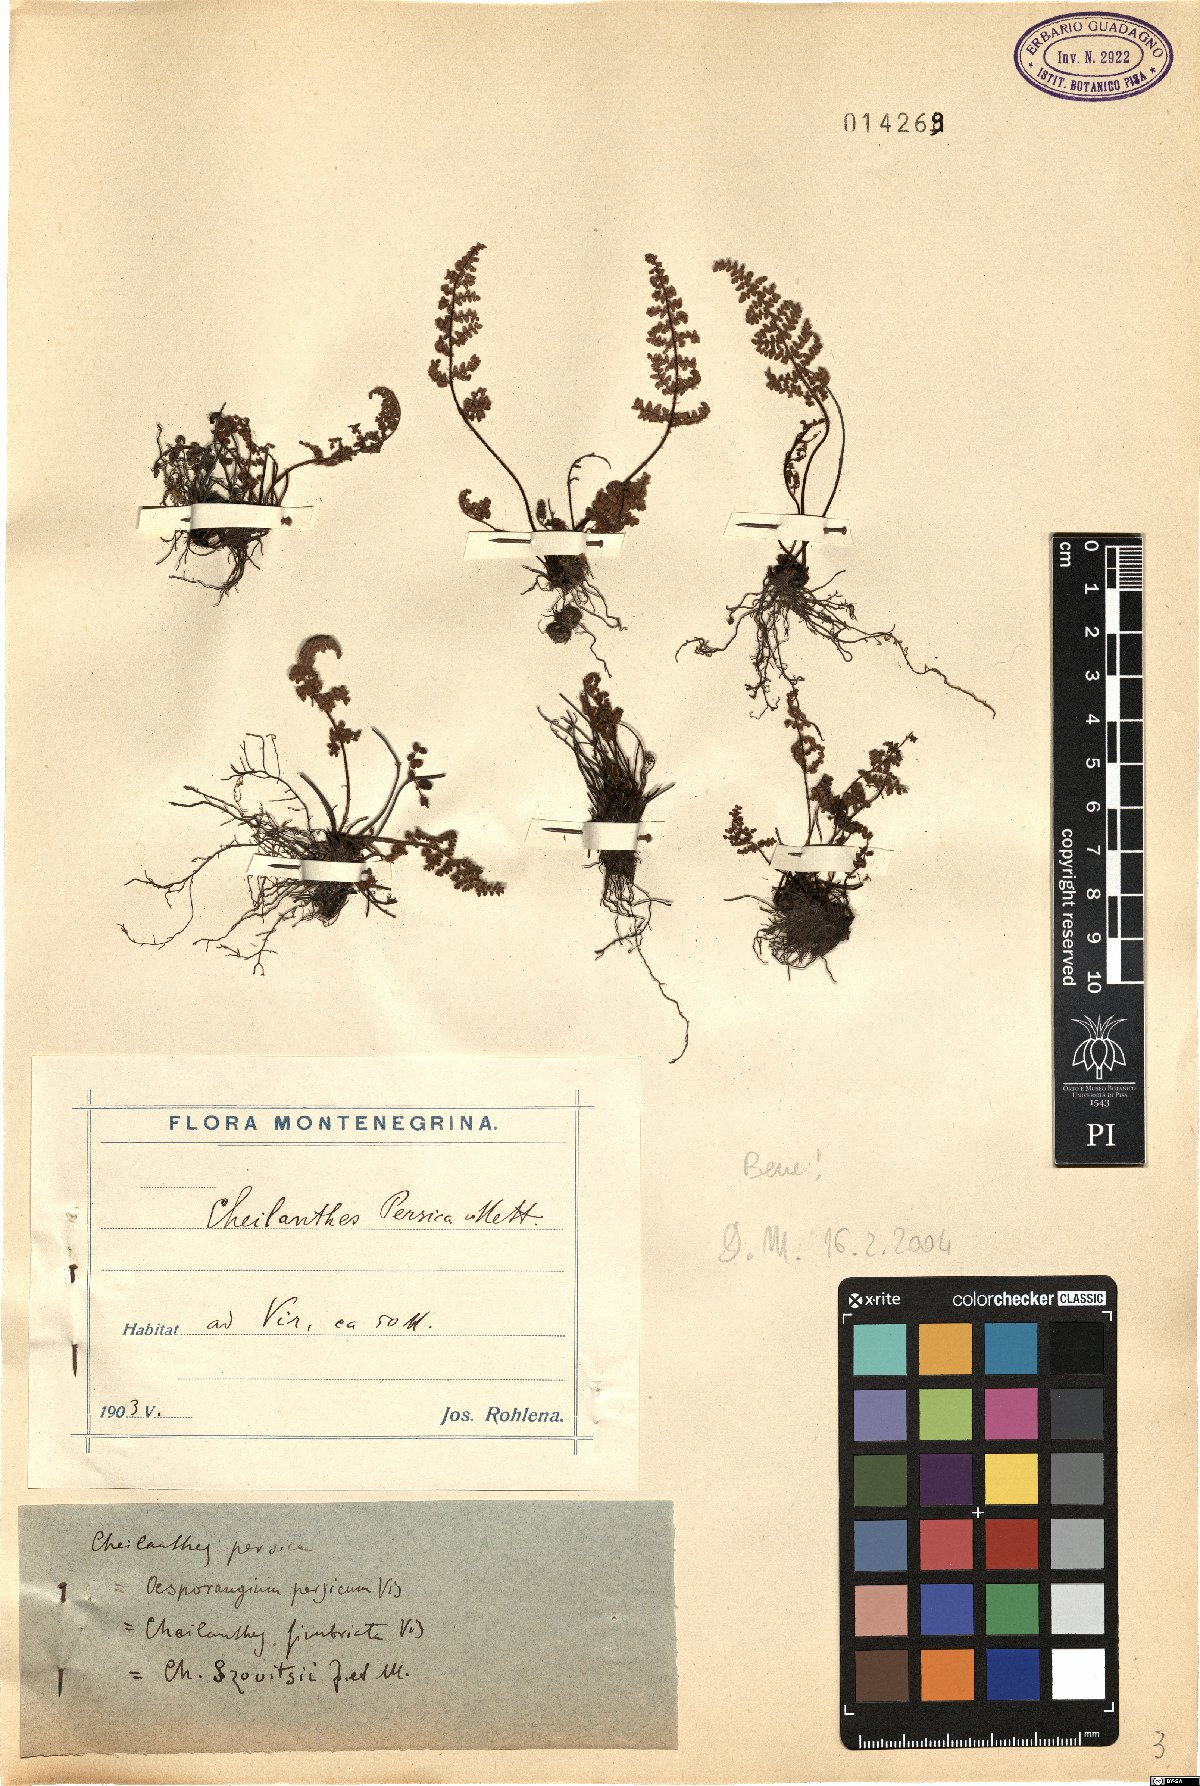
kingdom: Plantae
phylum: Tracheophyta
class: Polypodiopsida
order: Polypodiales
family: Pteridaceae
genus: Cheilanthes
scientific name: Cheilanthes persica
